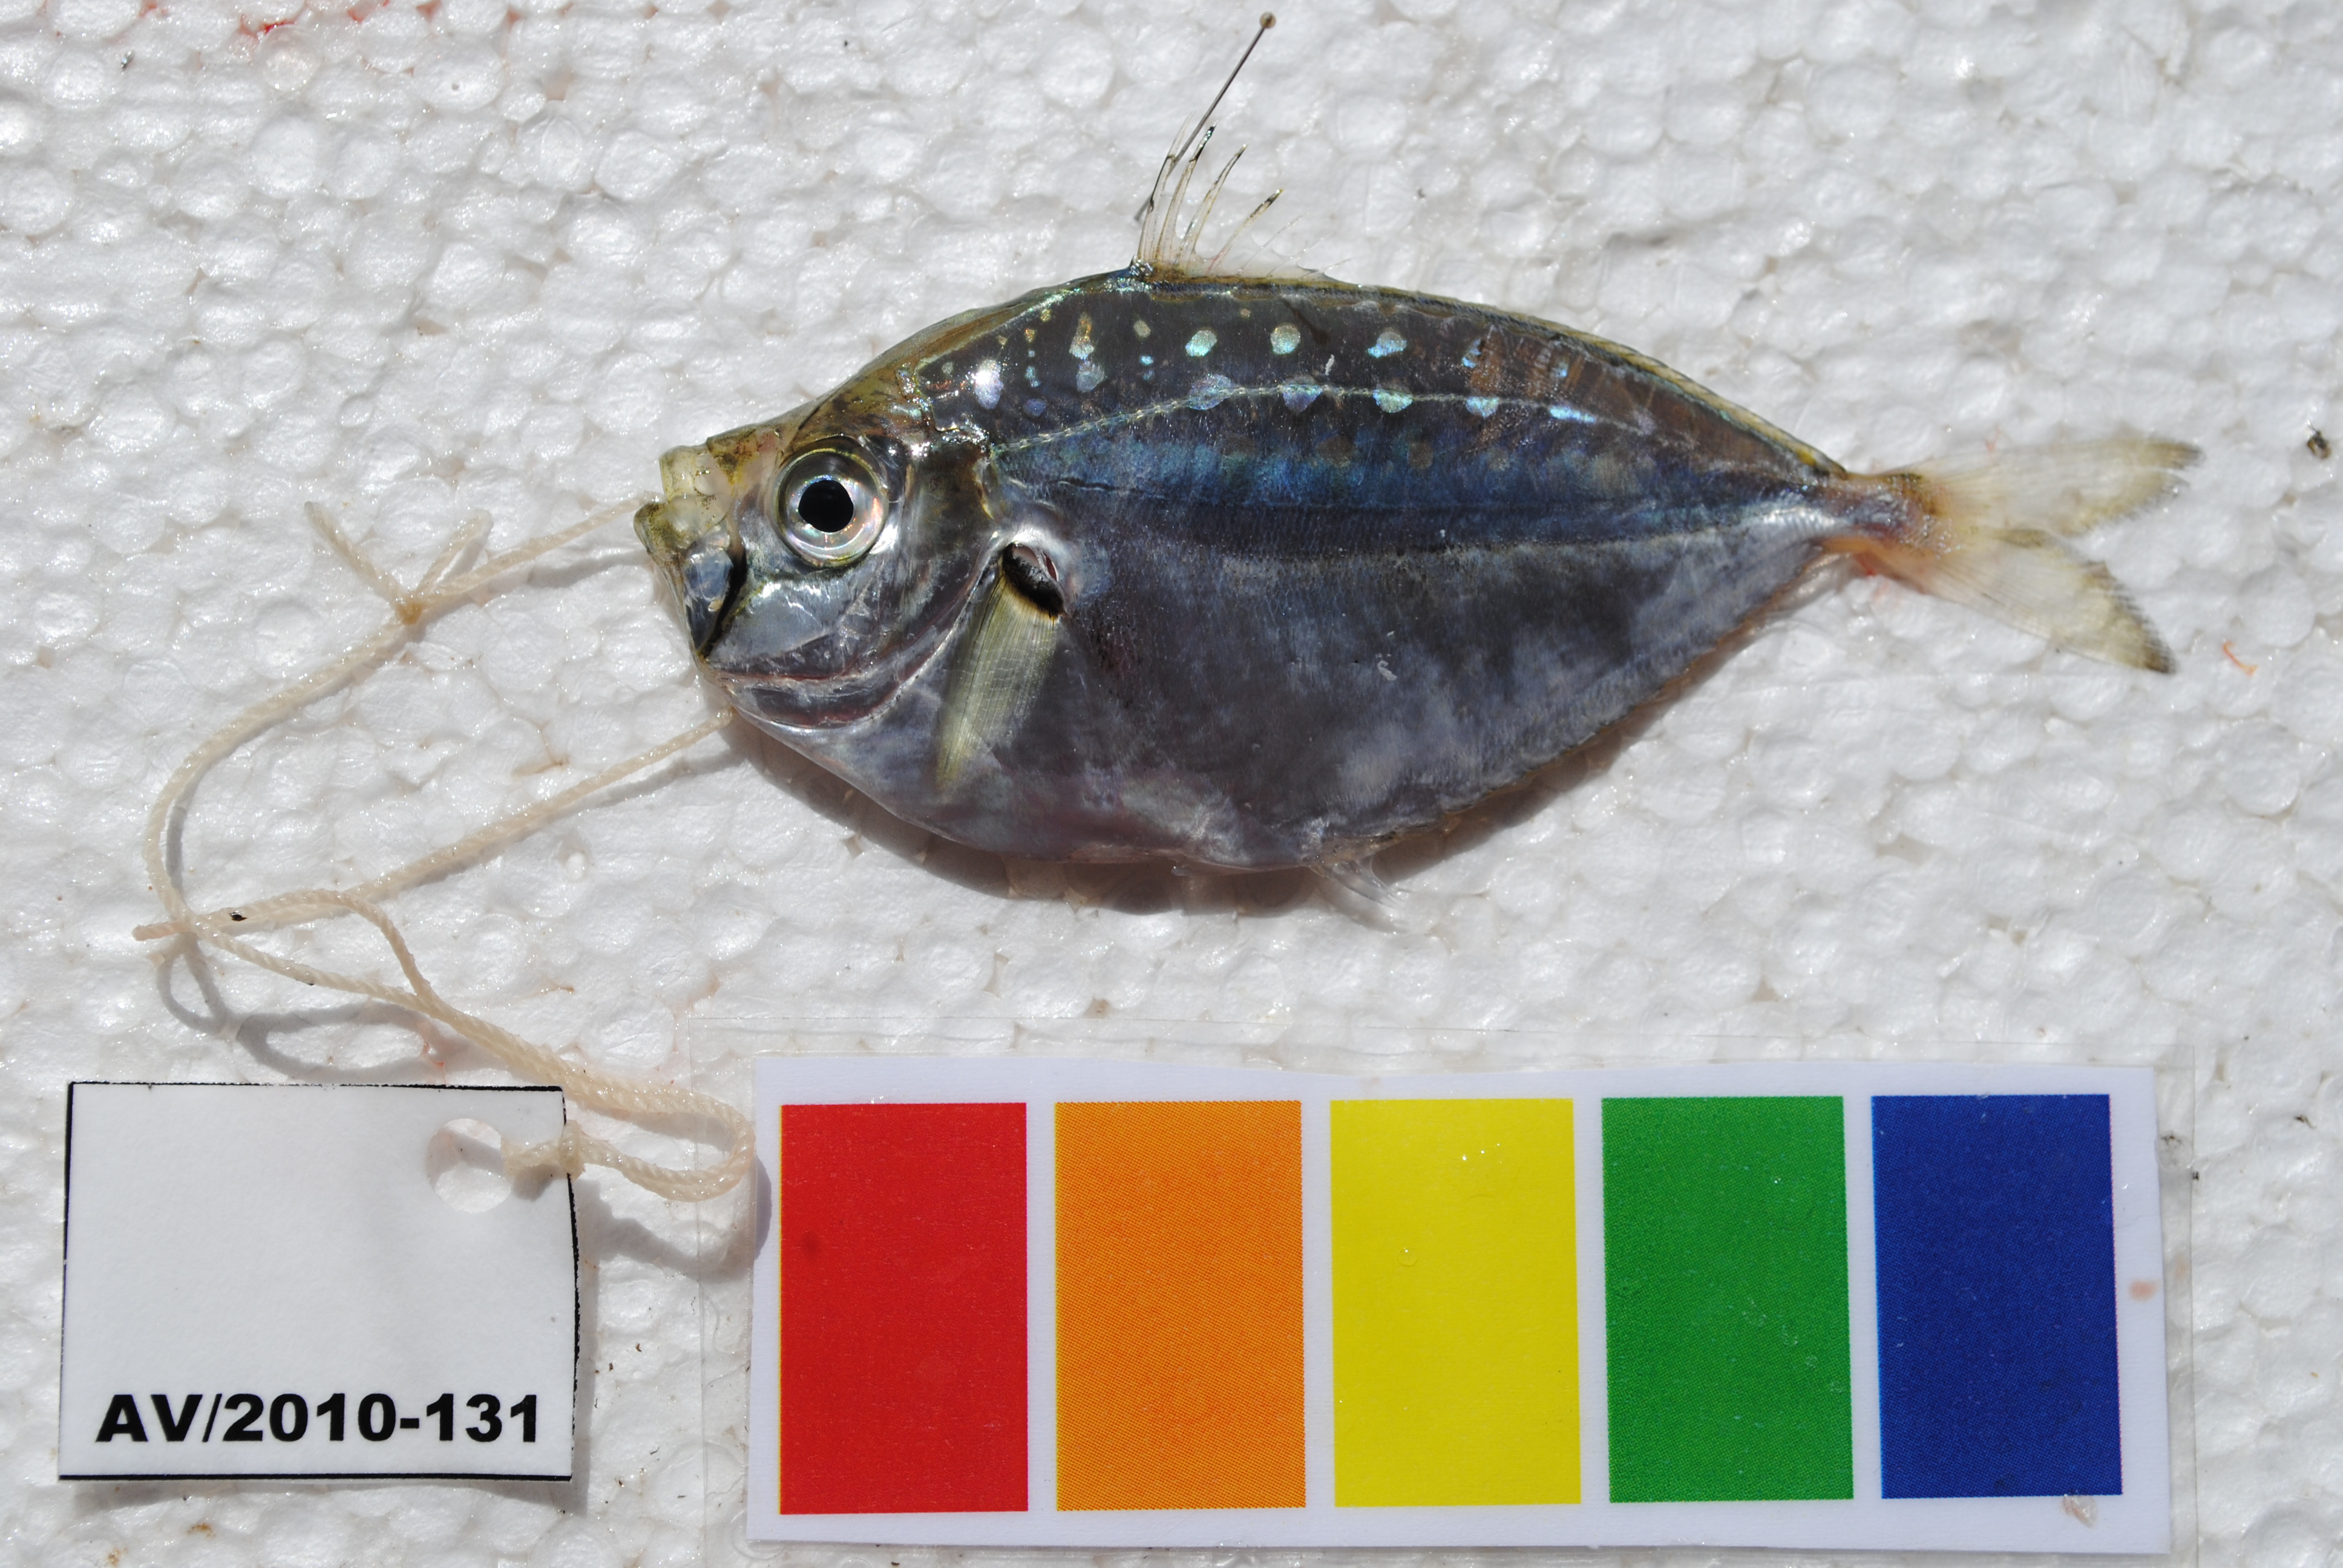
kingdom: Animalia
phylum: Chordata
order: Perciformes
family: Leiognathidae
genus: Secutor
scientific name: Secutor mazavasaoka
